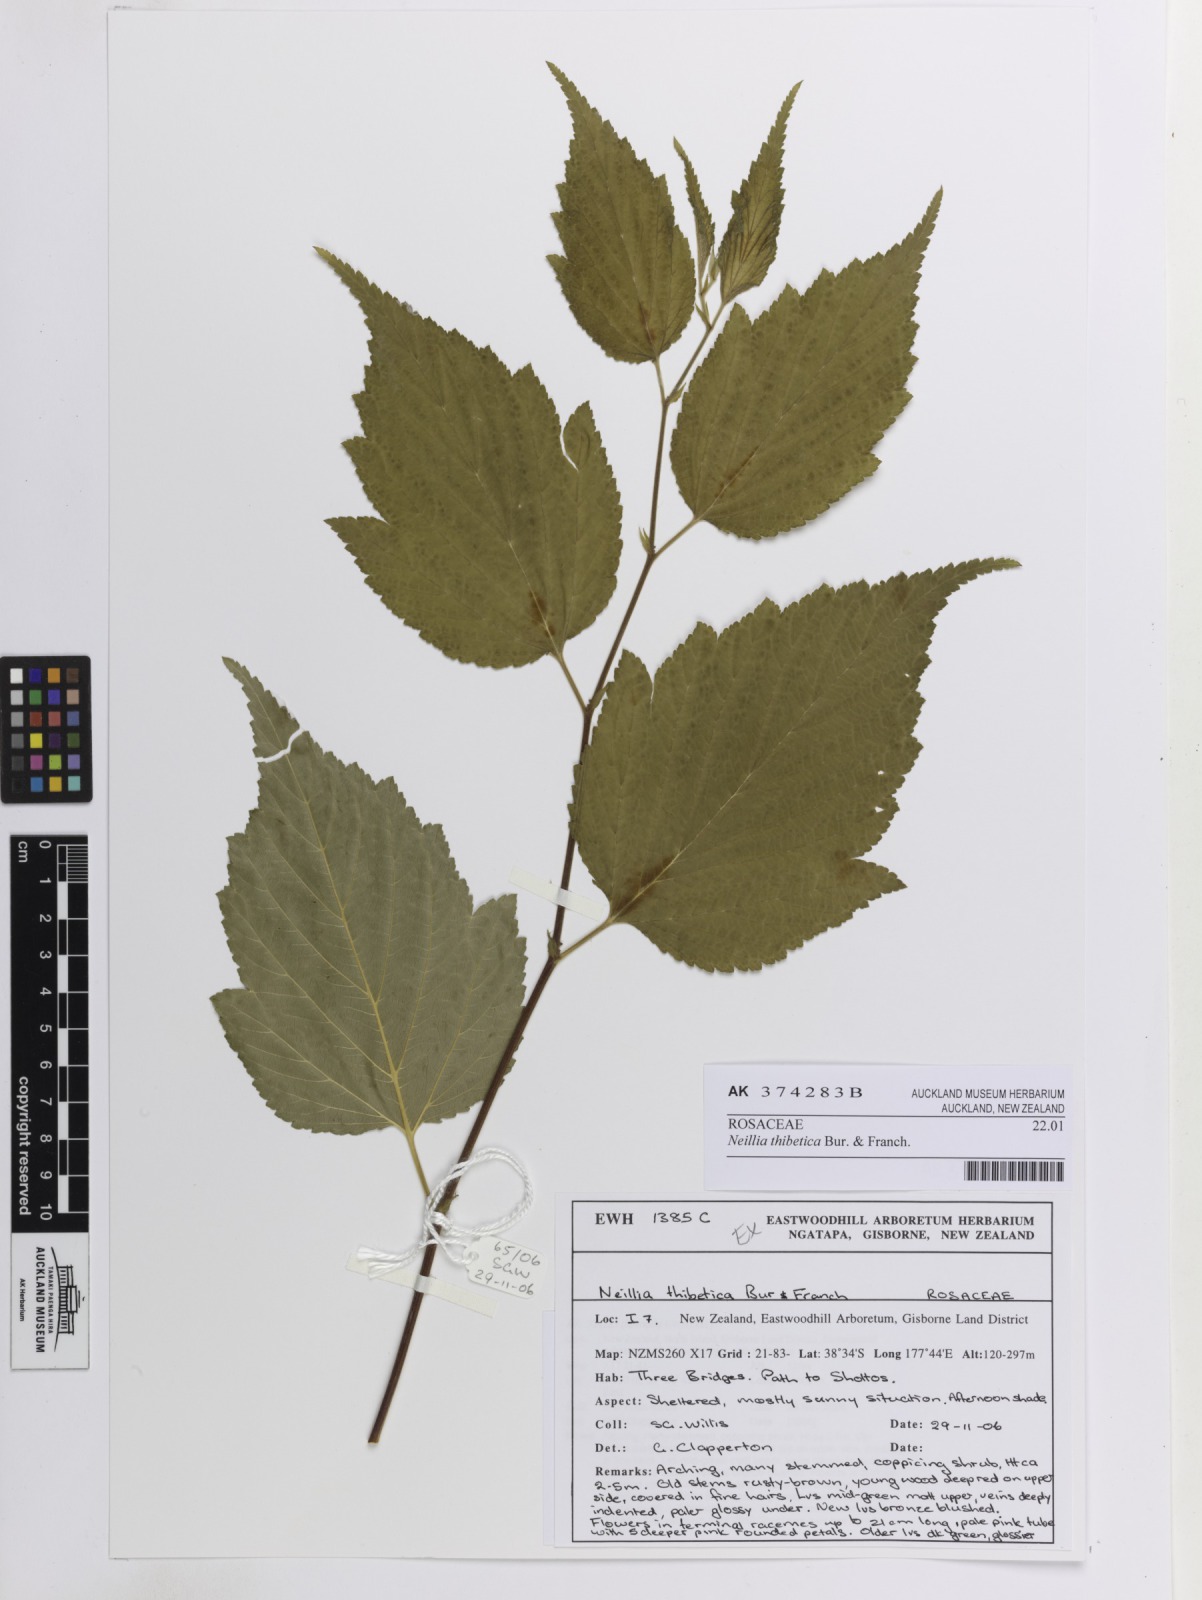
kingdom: Plantae
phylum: Tracheophyta
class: Magnoliopsida
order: Rosales
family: Rosaceae
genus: Neillia
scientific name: Neillia thibetica
